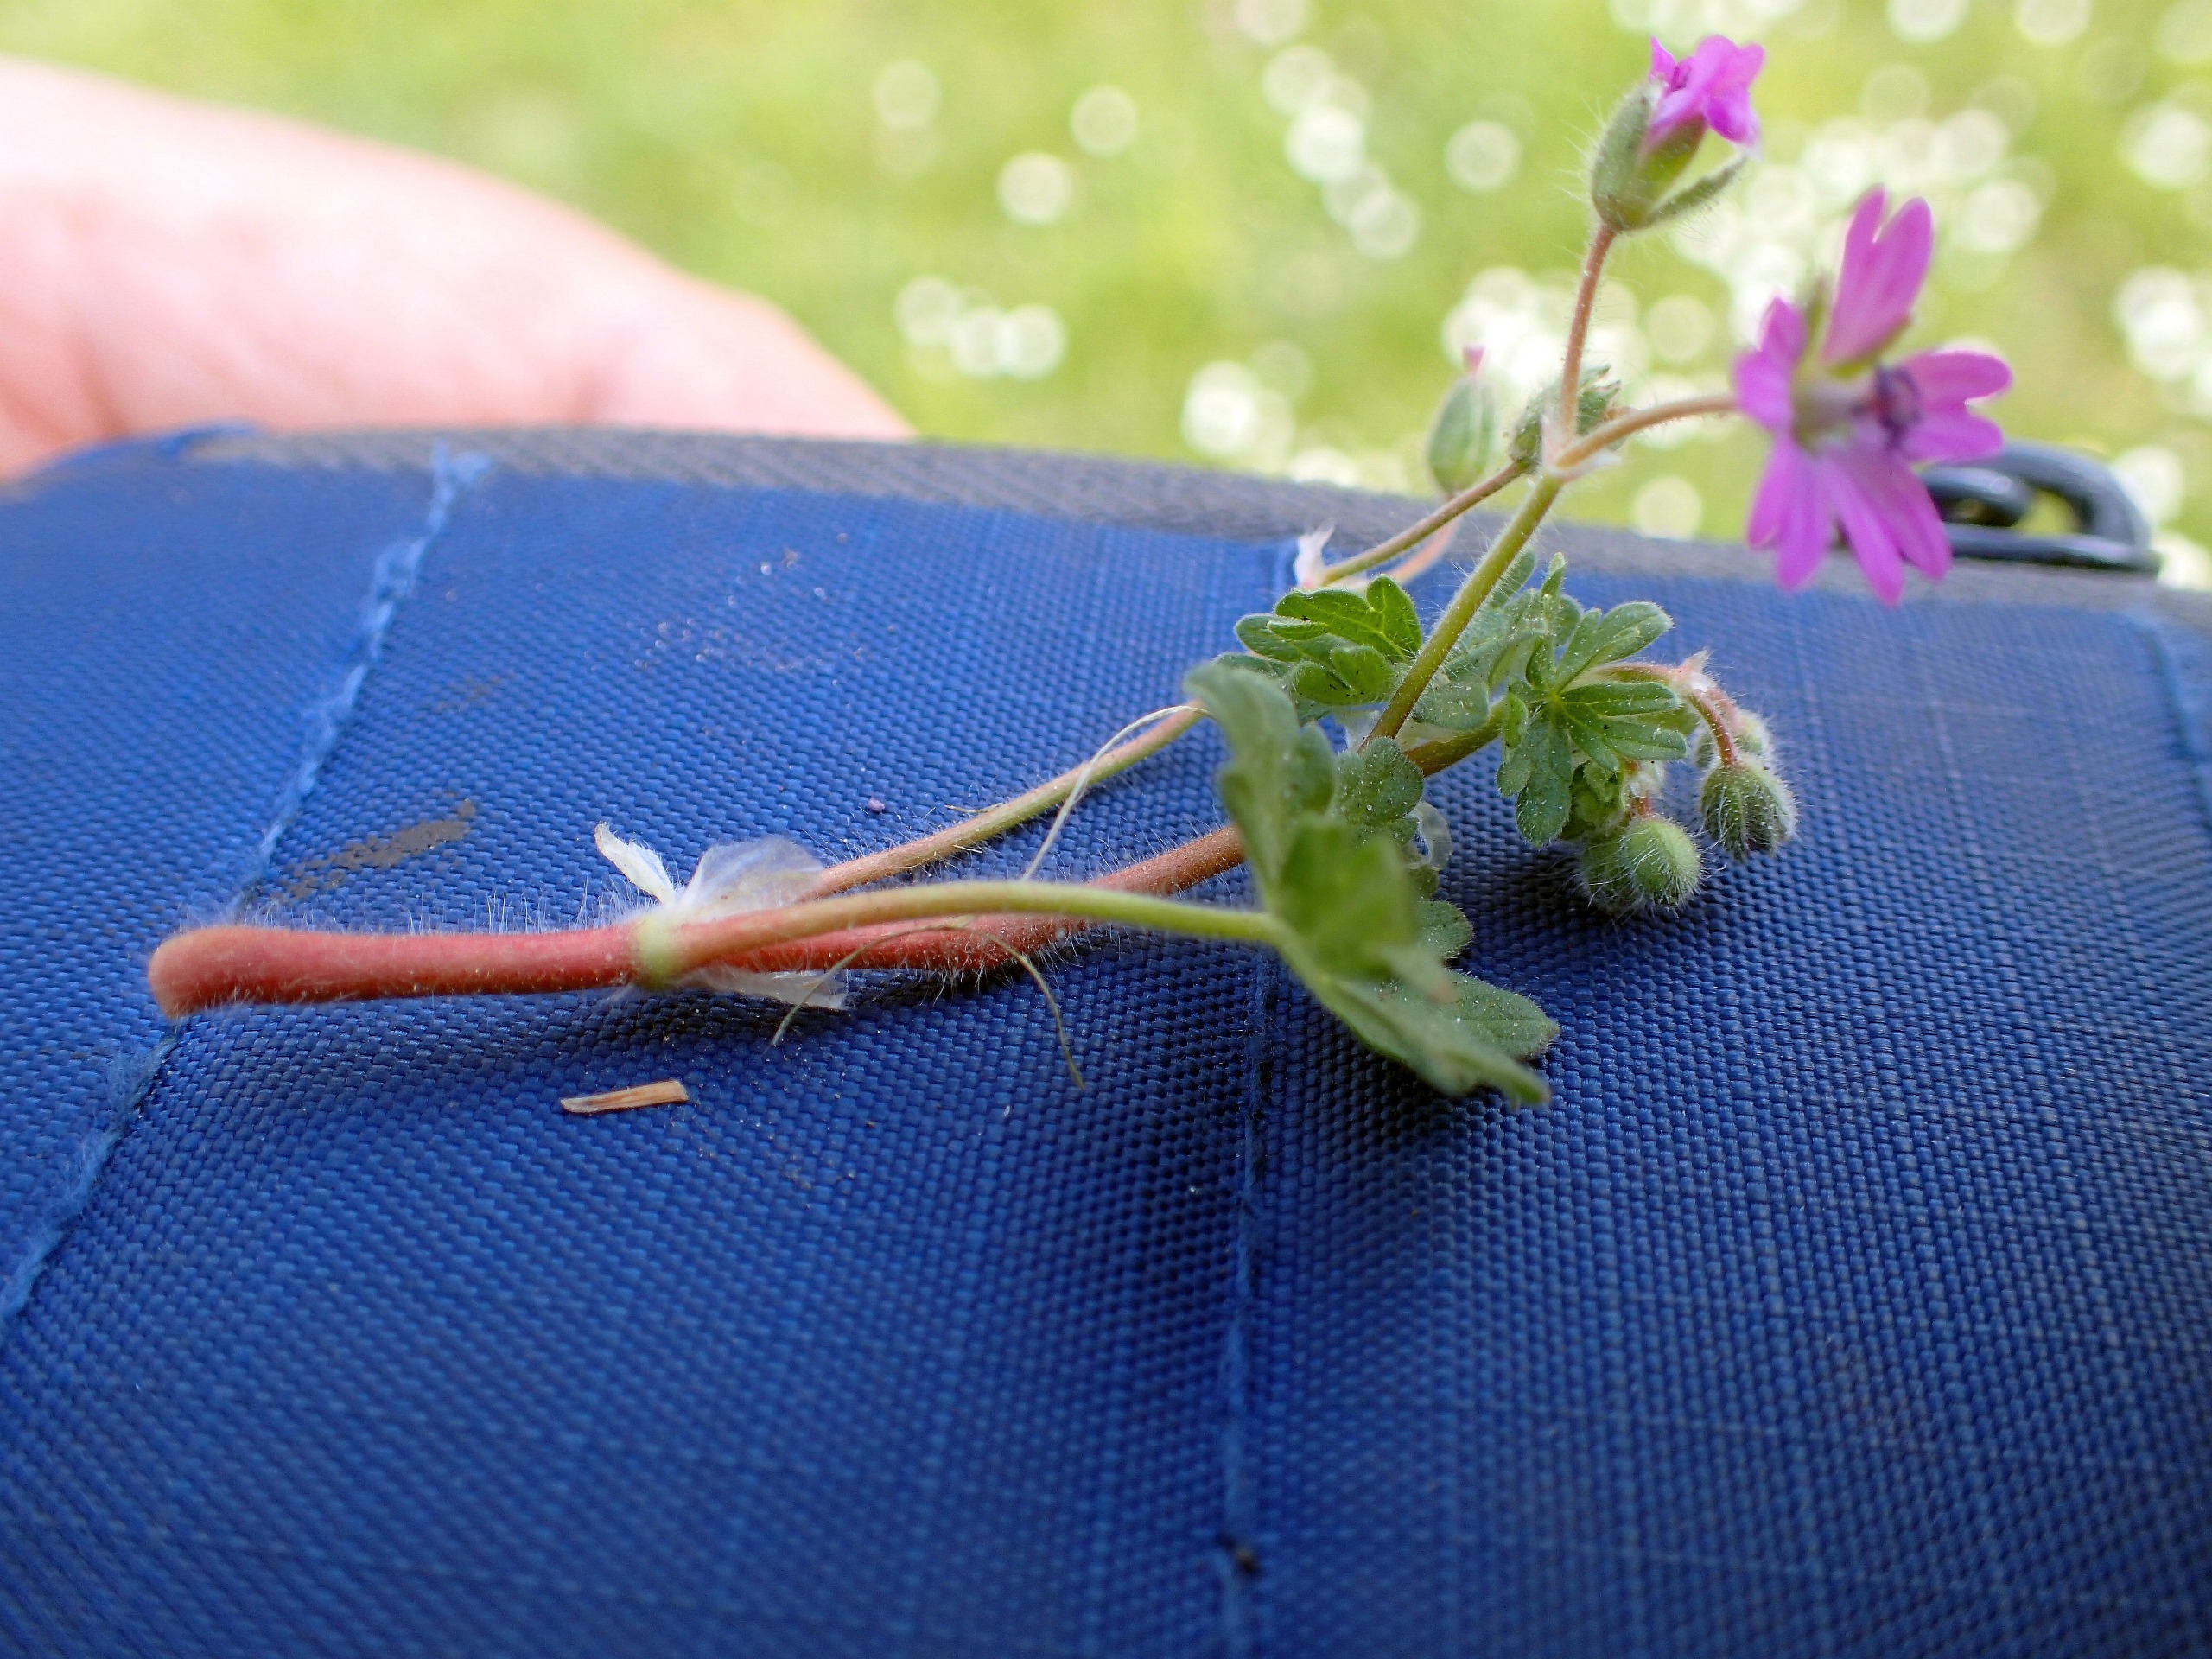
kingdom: Plantae
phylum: Tracheophyta
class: Magnoliopsida
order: Geraniales
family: Geraniaceae
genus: Geranium
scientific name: Geranium molle
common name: Blød storkenæb
